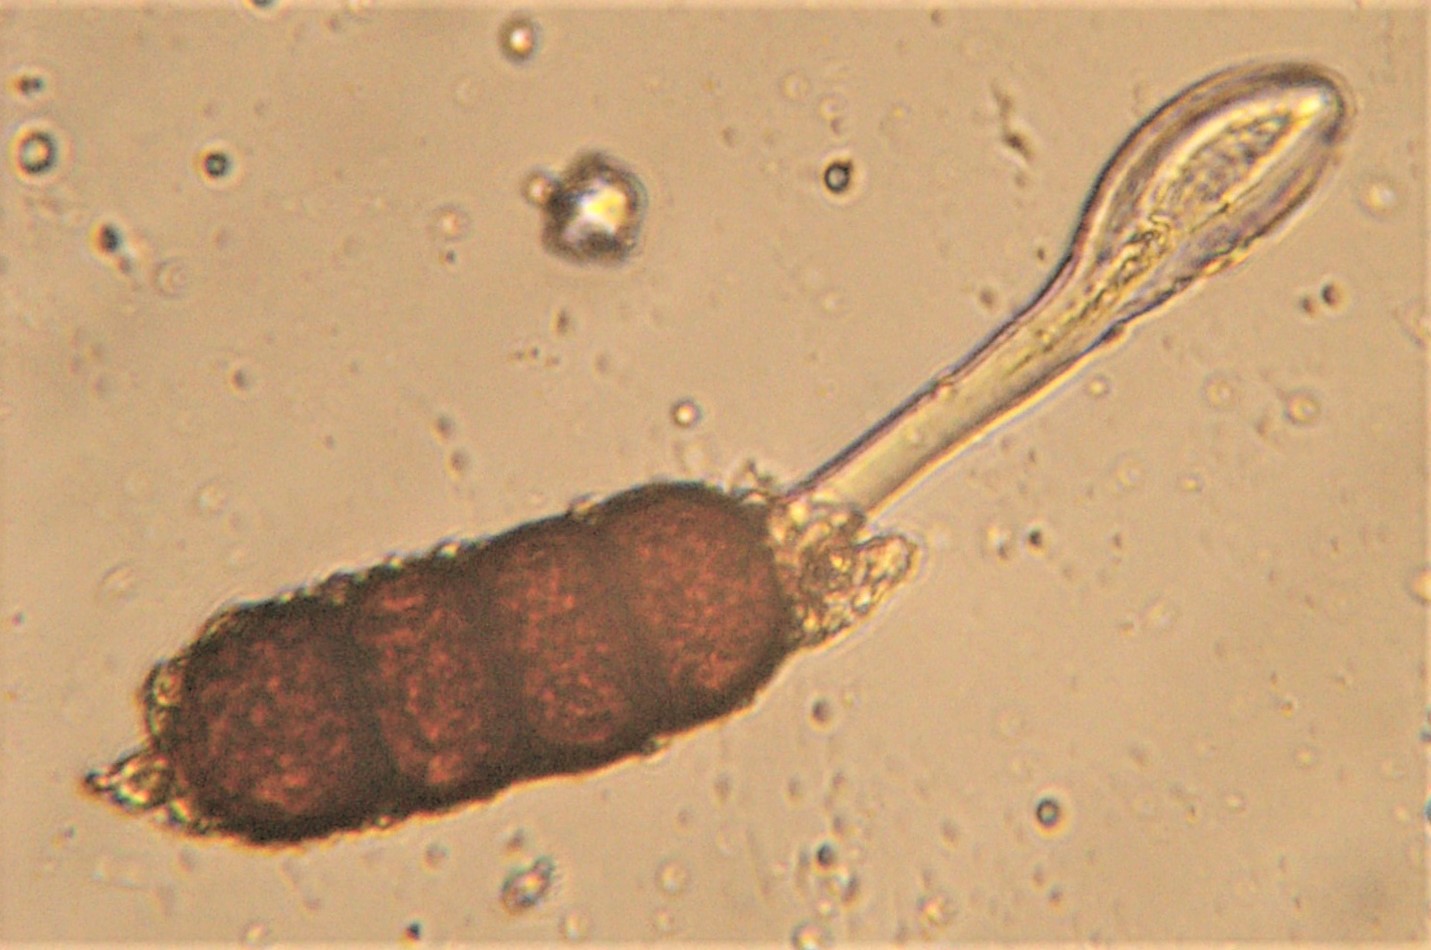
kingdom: Fungi
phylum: Basidiomycota
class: Pucciniomycetes
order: Pucciniales
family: Phragmidiaceae
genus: Phragmidium
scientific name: Phragmidium violaceum
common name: violet flercellerust
